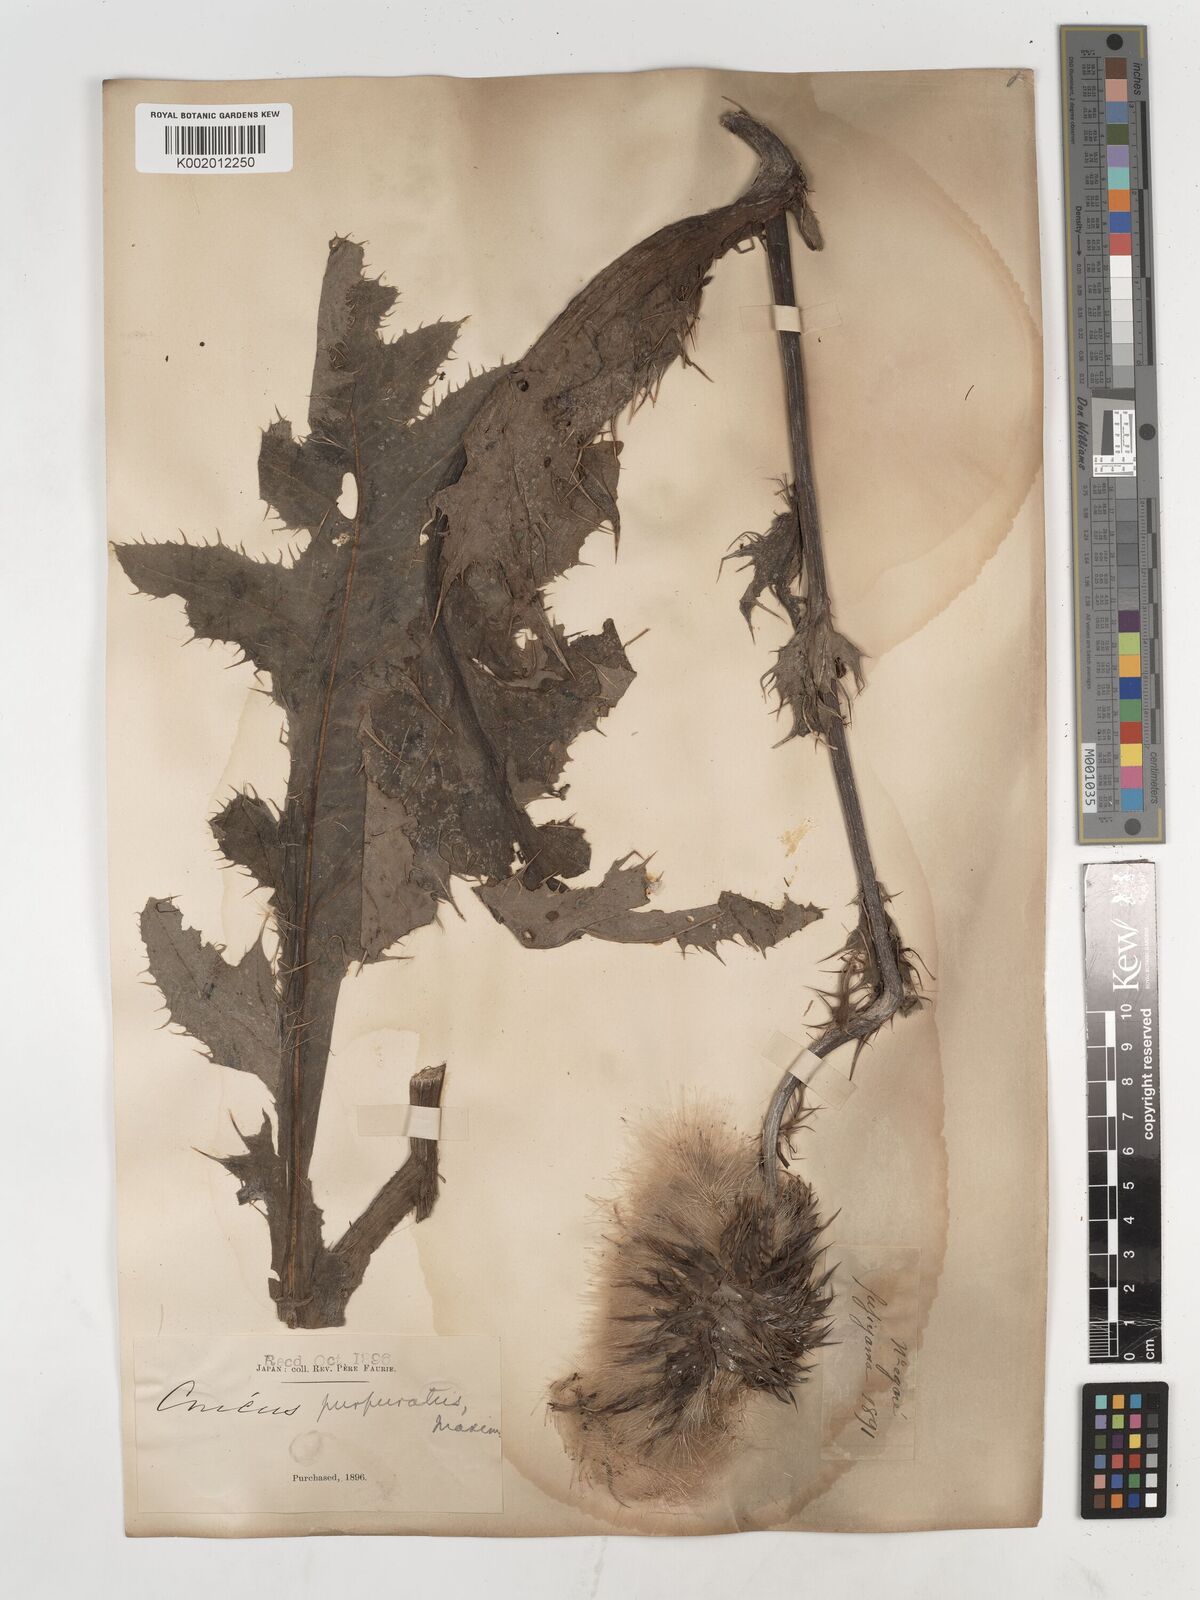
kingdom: Plantae
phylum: Tracheophyta
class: Magnoliopsida
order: Asterales
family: Asteraceae
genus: Cirsium
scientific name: Cirsium purpuratum
